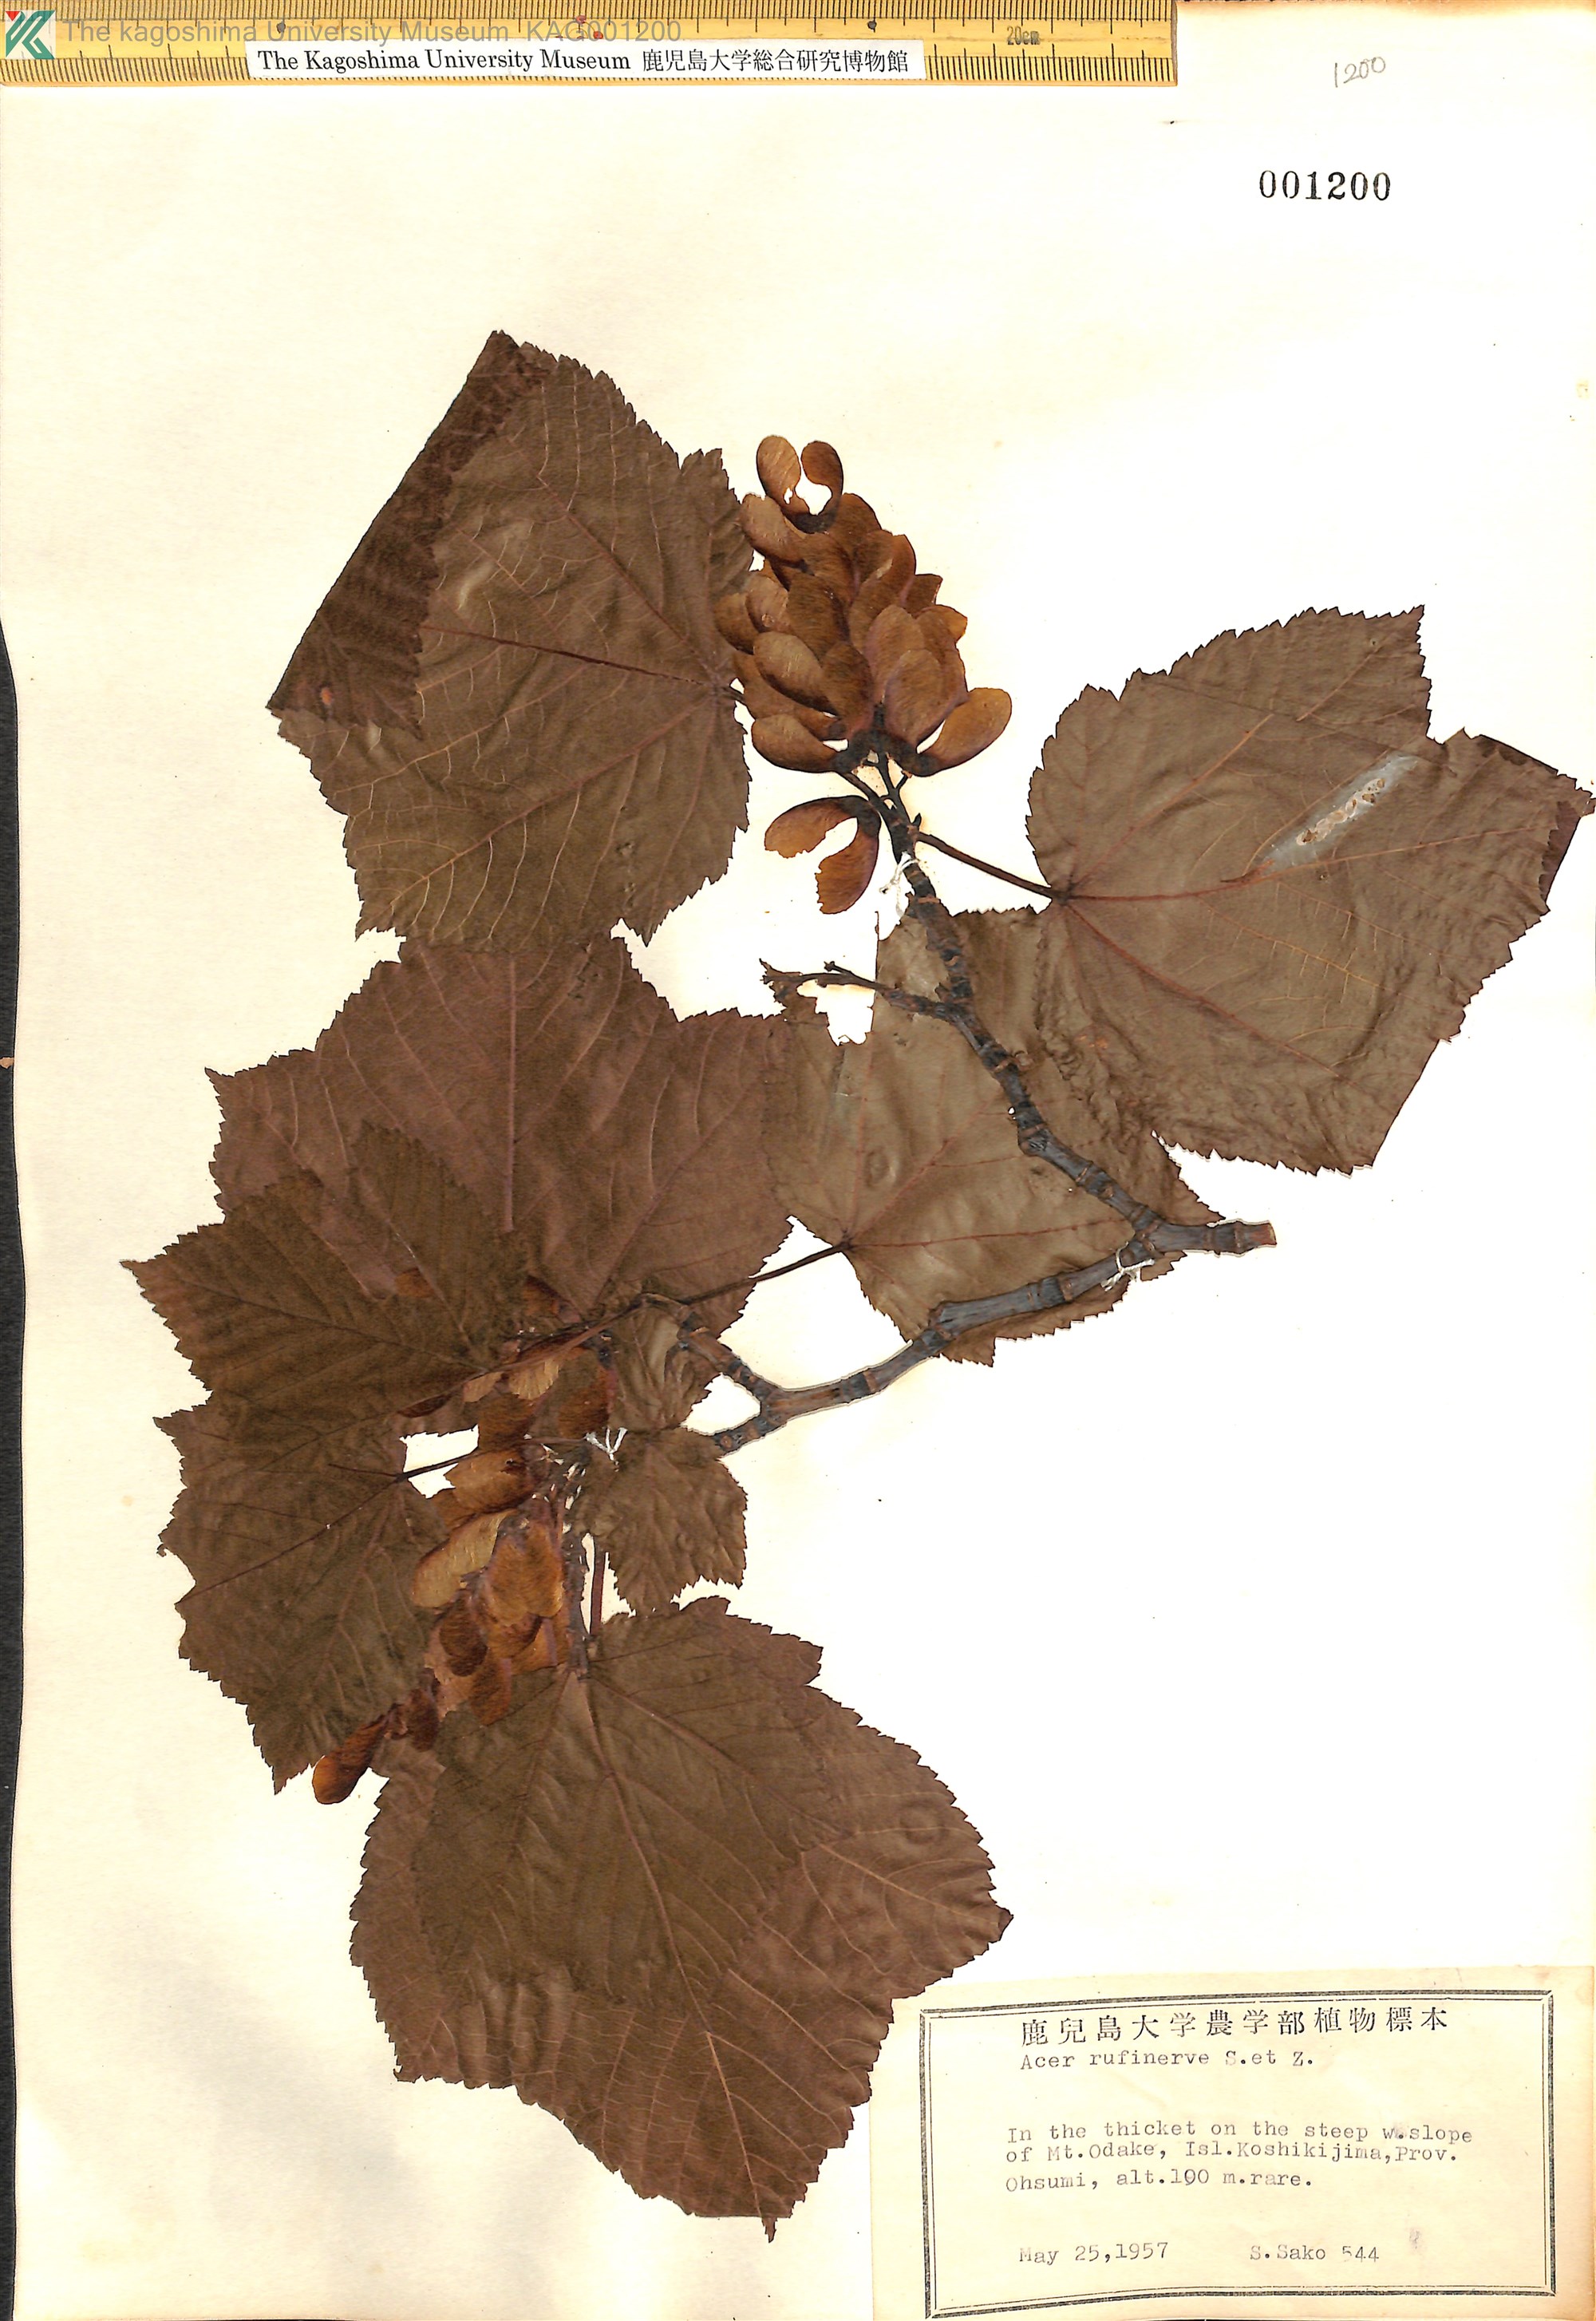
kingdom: Plantae
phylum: Tracheophyta
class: Magnoliopsida
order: Sapindales
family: Sapindaceae
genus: Acer
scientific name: Acer rufinerve
